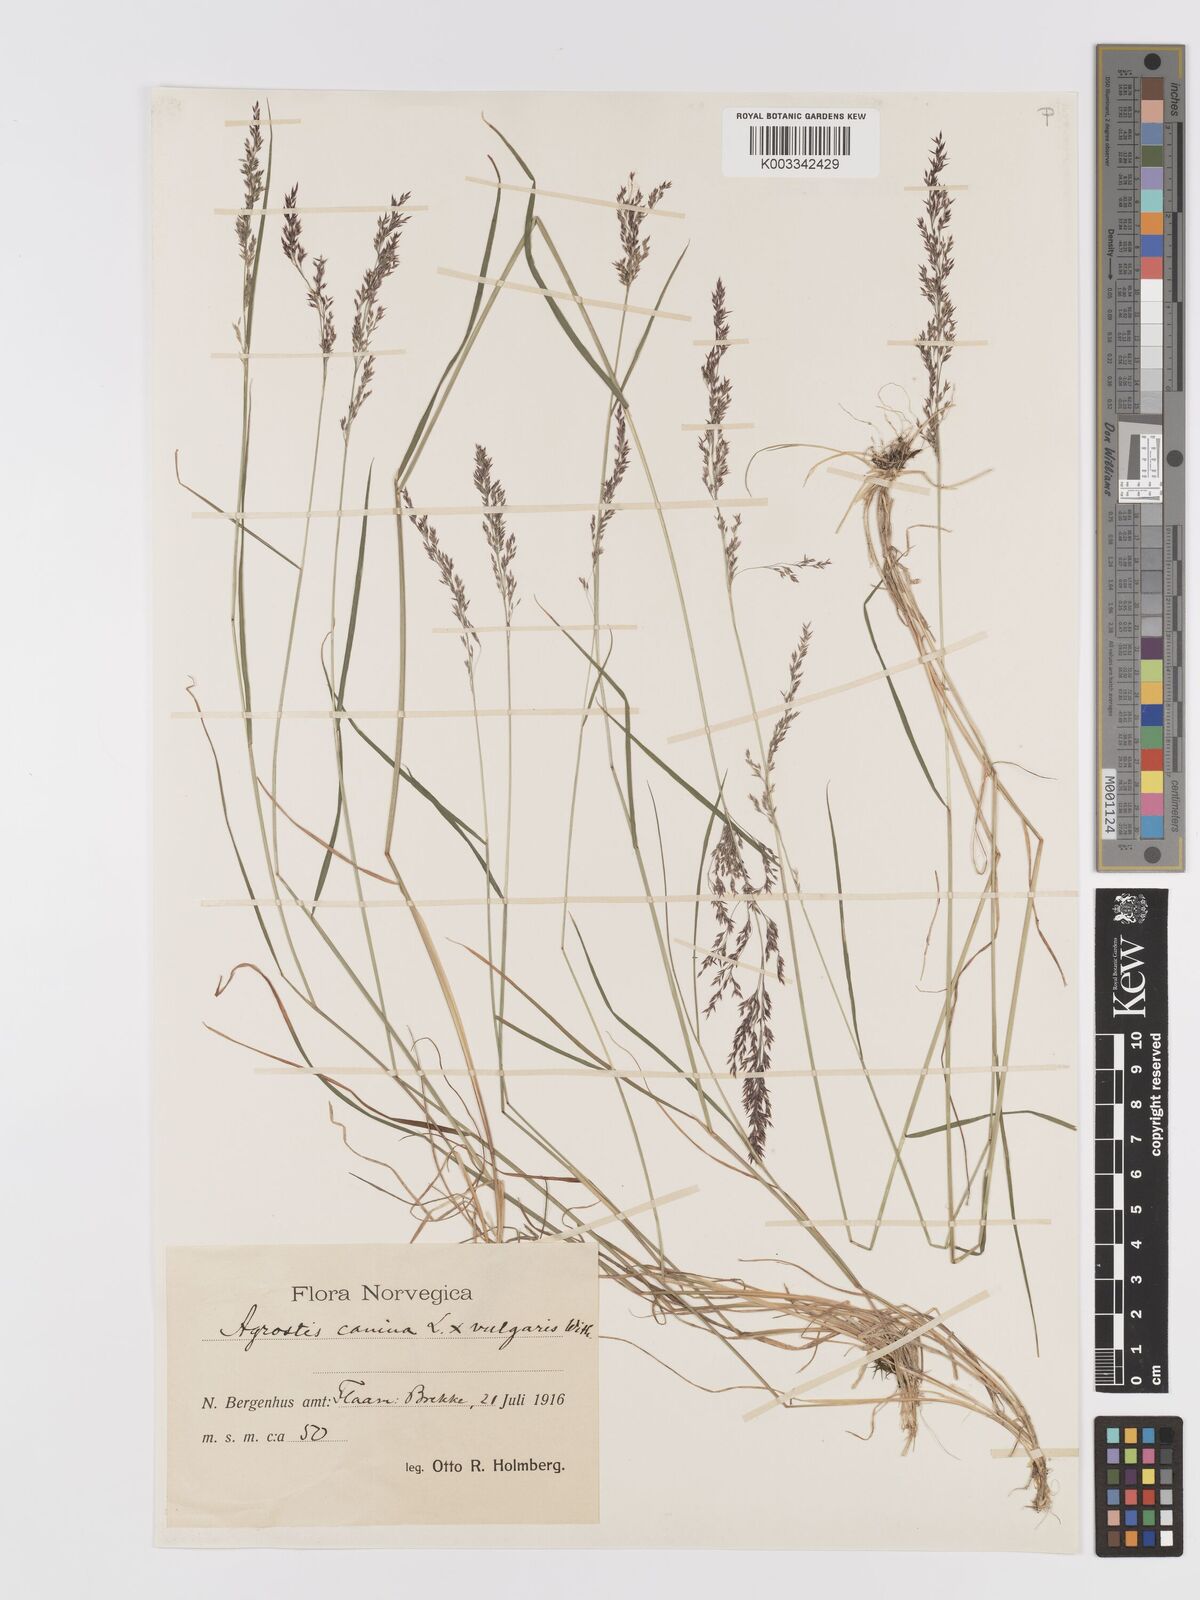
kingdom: Plantae
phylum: Tracheophyta
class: Liliopsida
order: Poales
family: Poaceae
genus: Agrostis
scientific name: Agrostis canina
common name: Velvet bent
